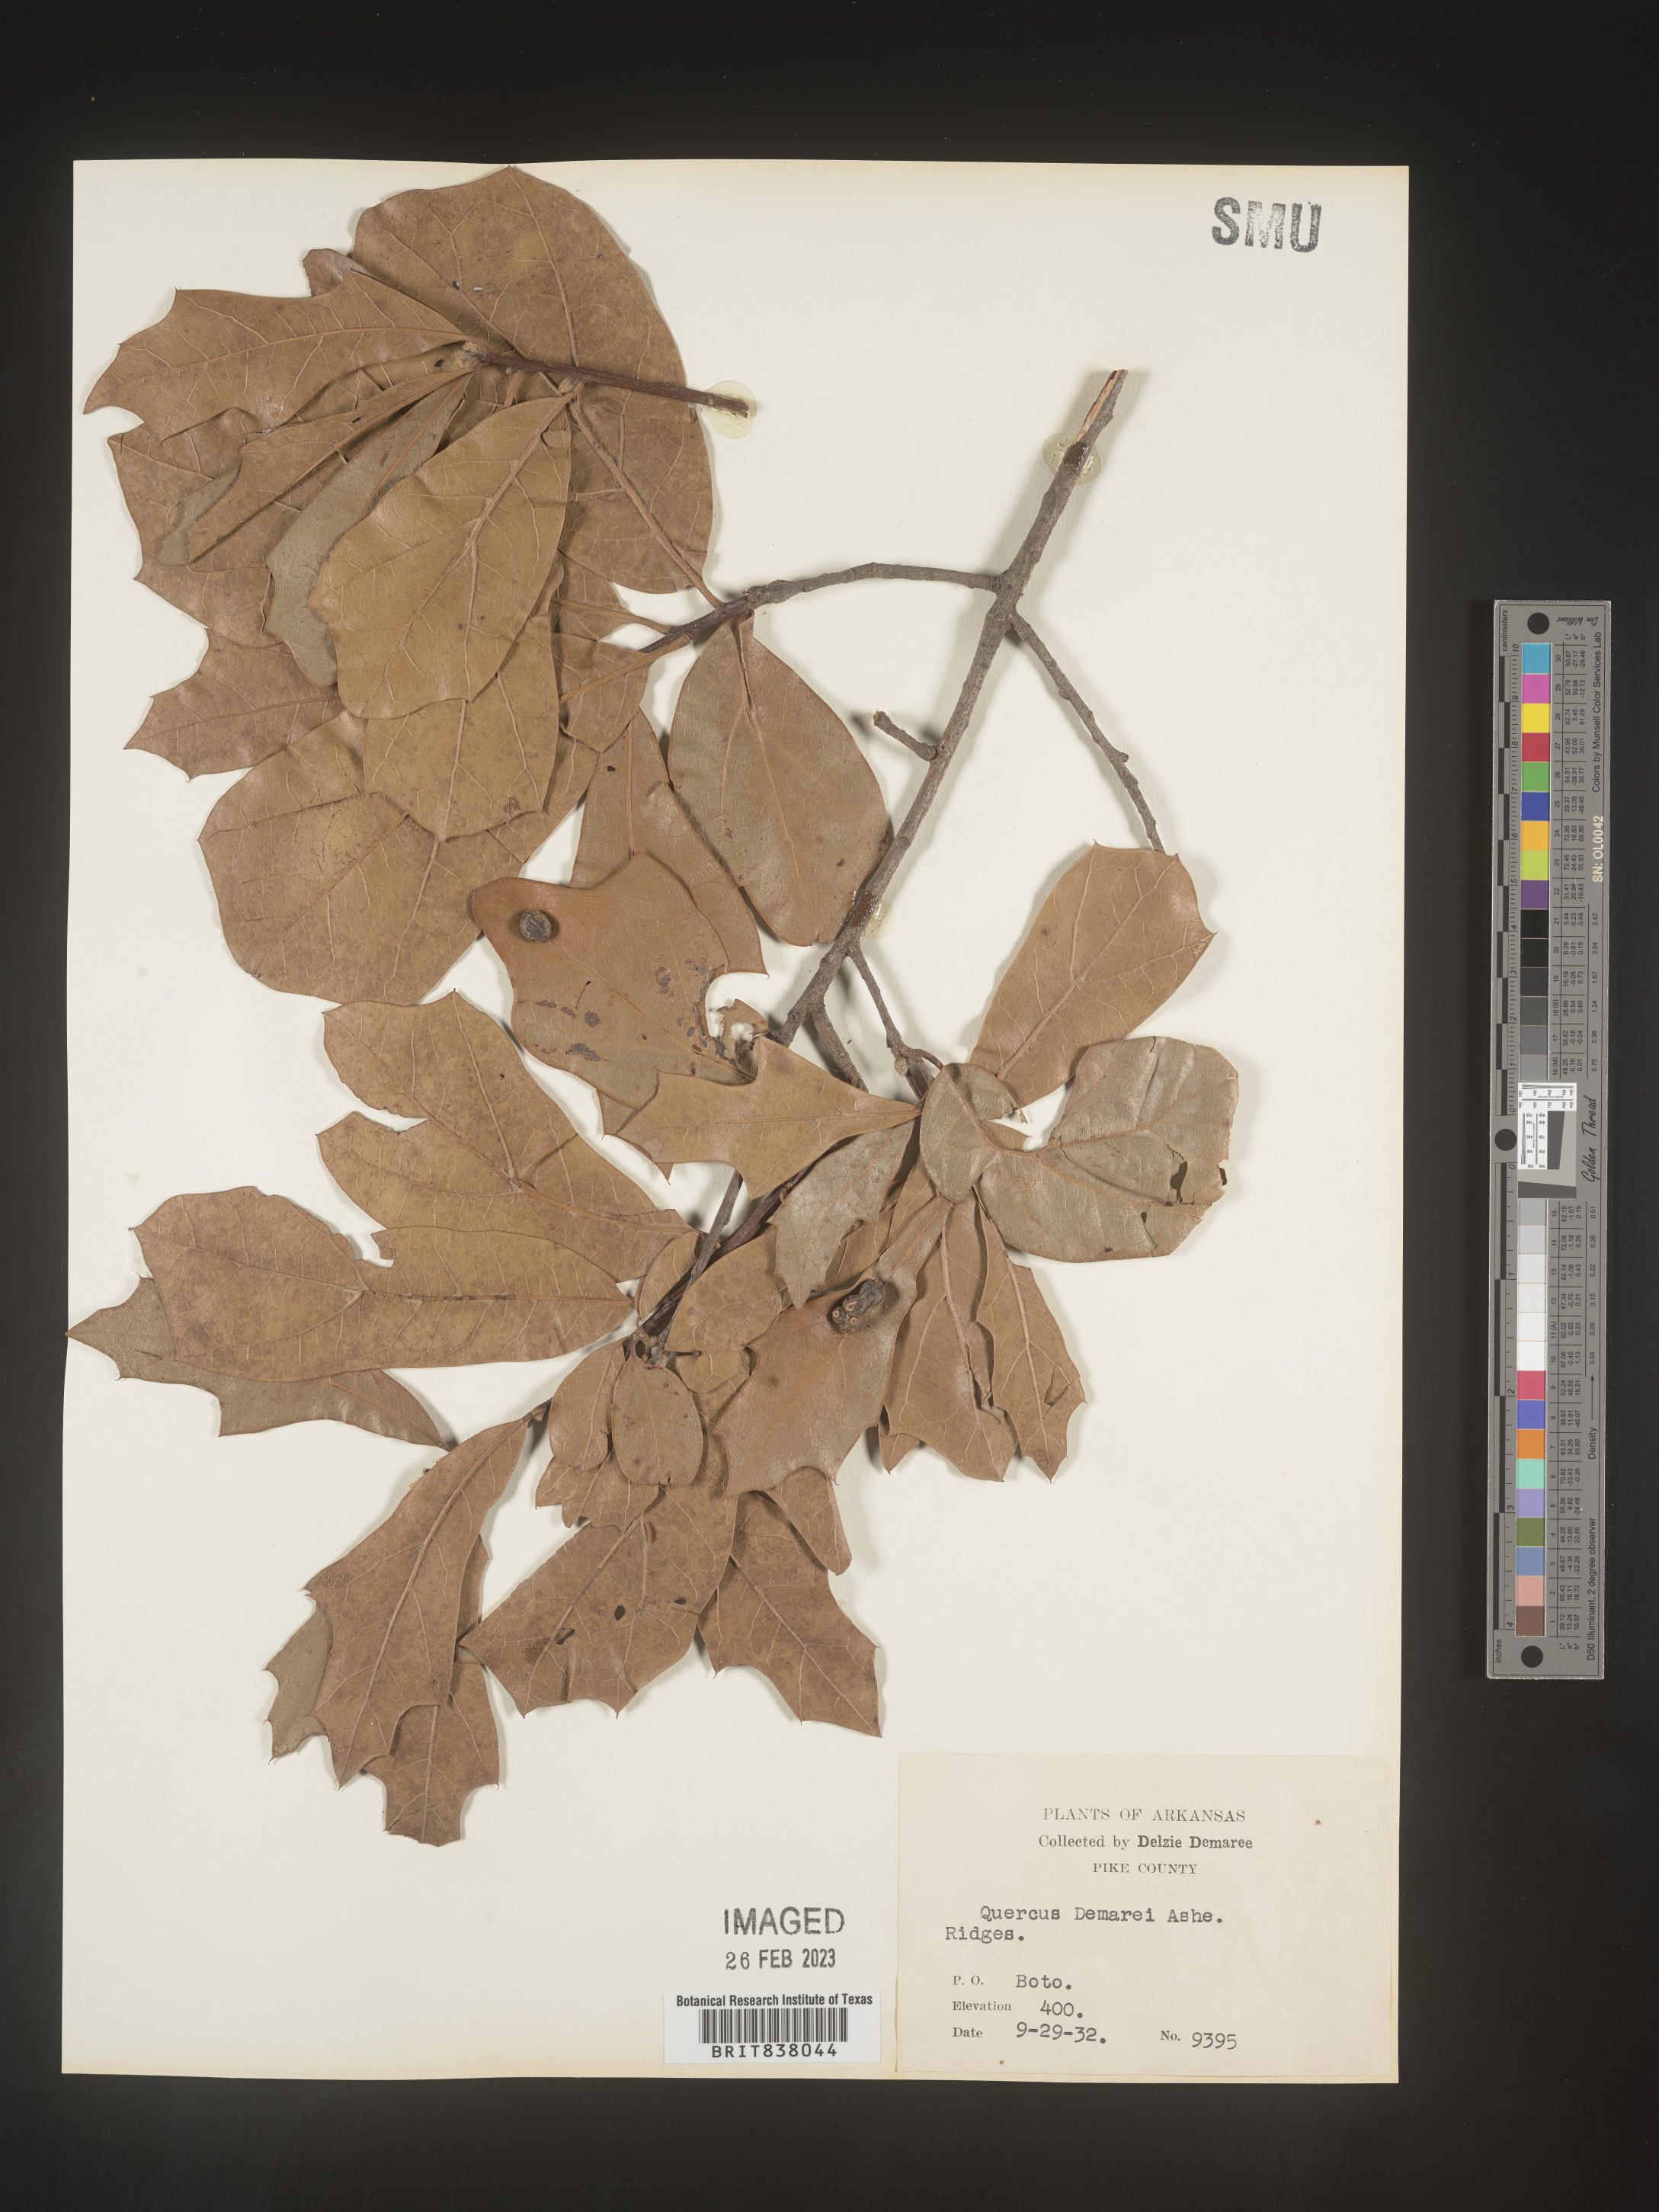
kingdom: Plantae
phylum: Tracheophyta
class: Magnoliopsida
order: Fagales
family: Fagaceae
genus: Quercus
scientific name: Quercus
